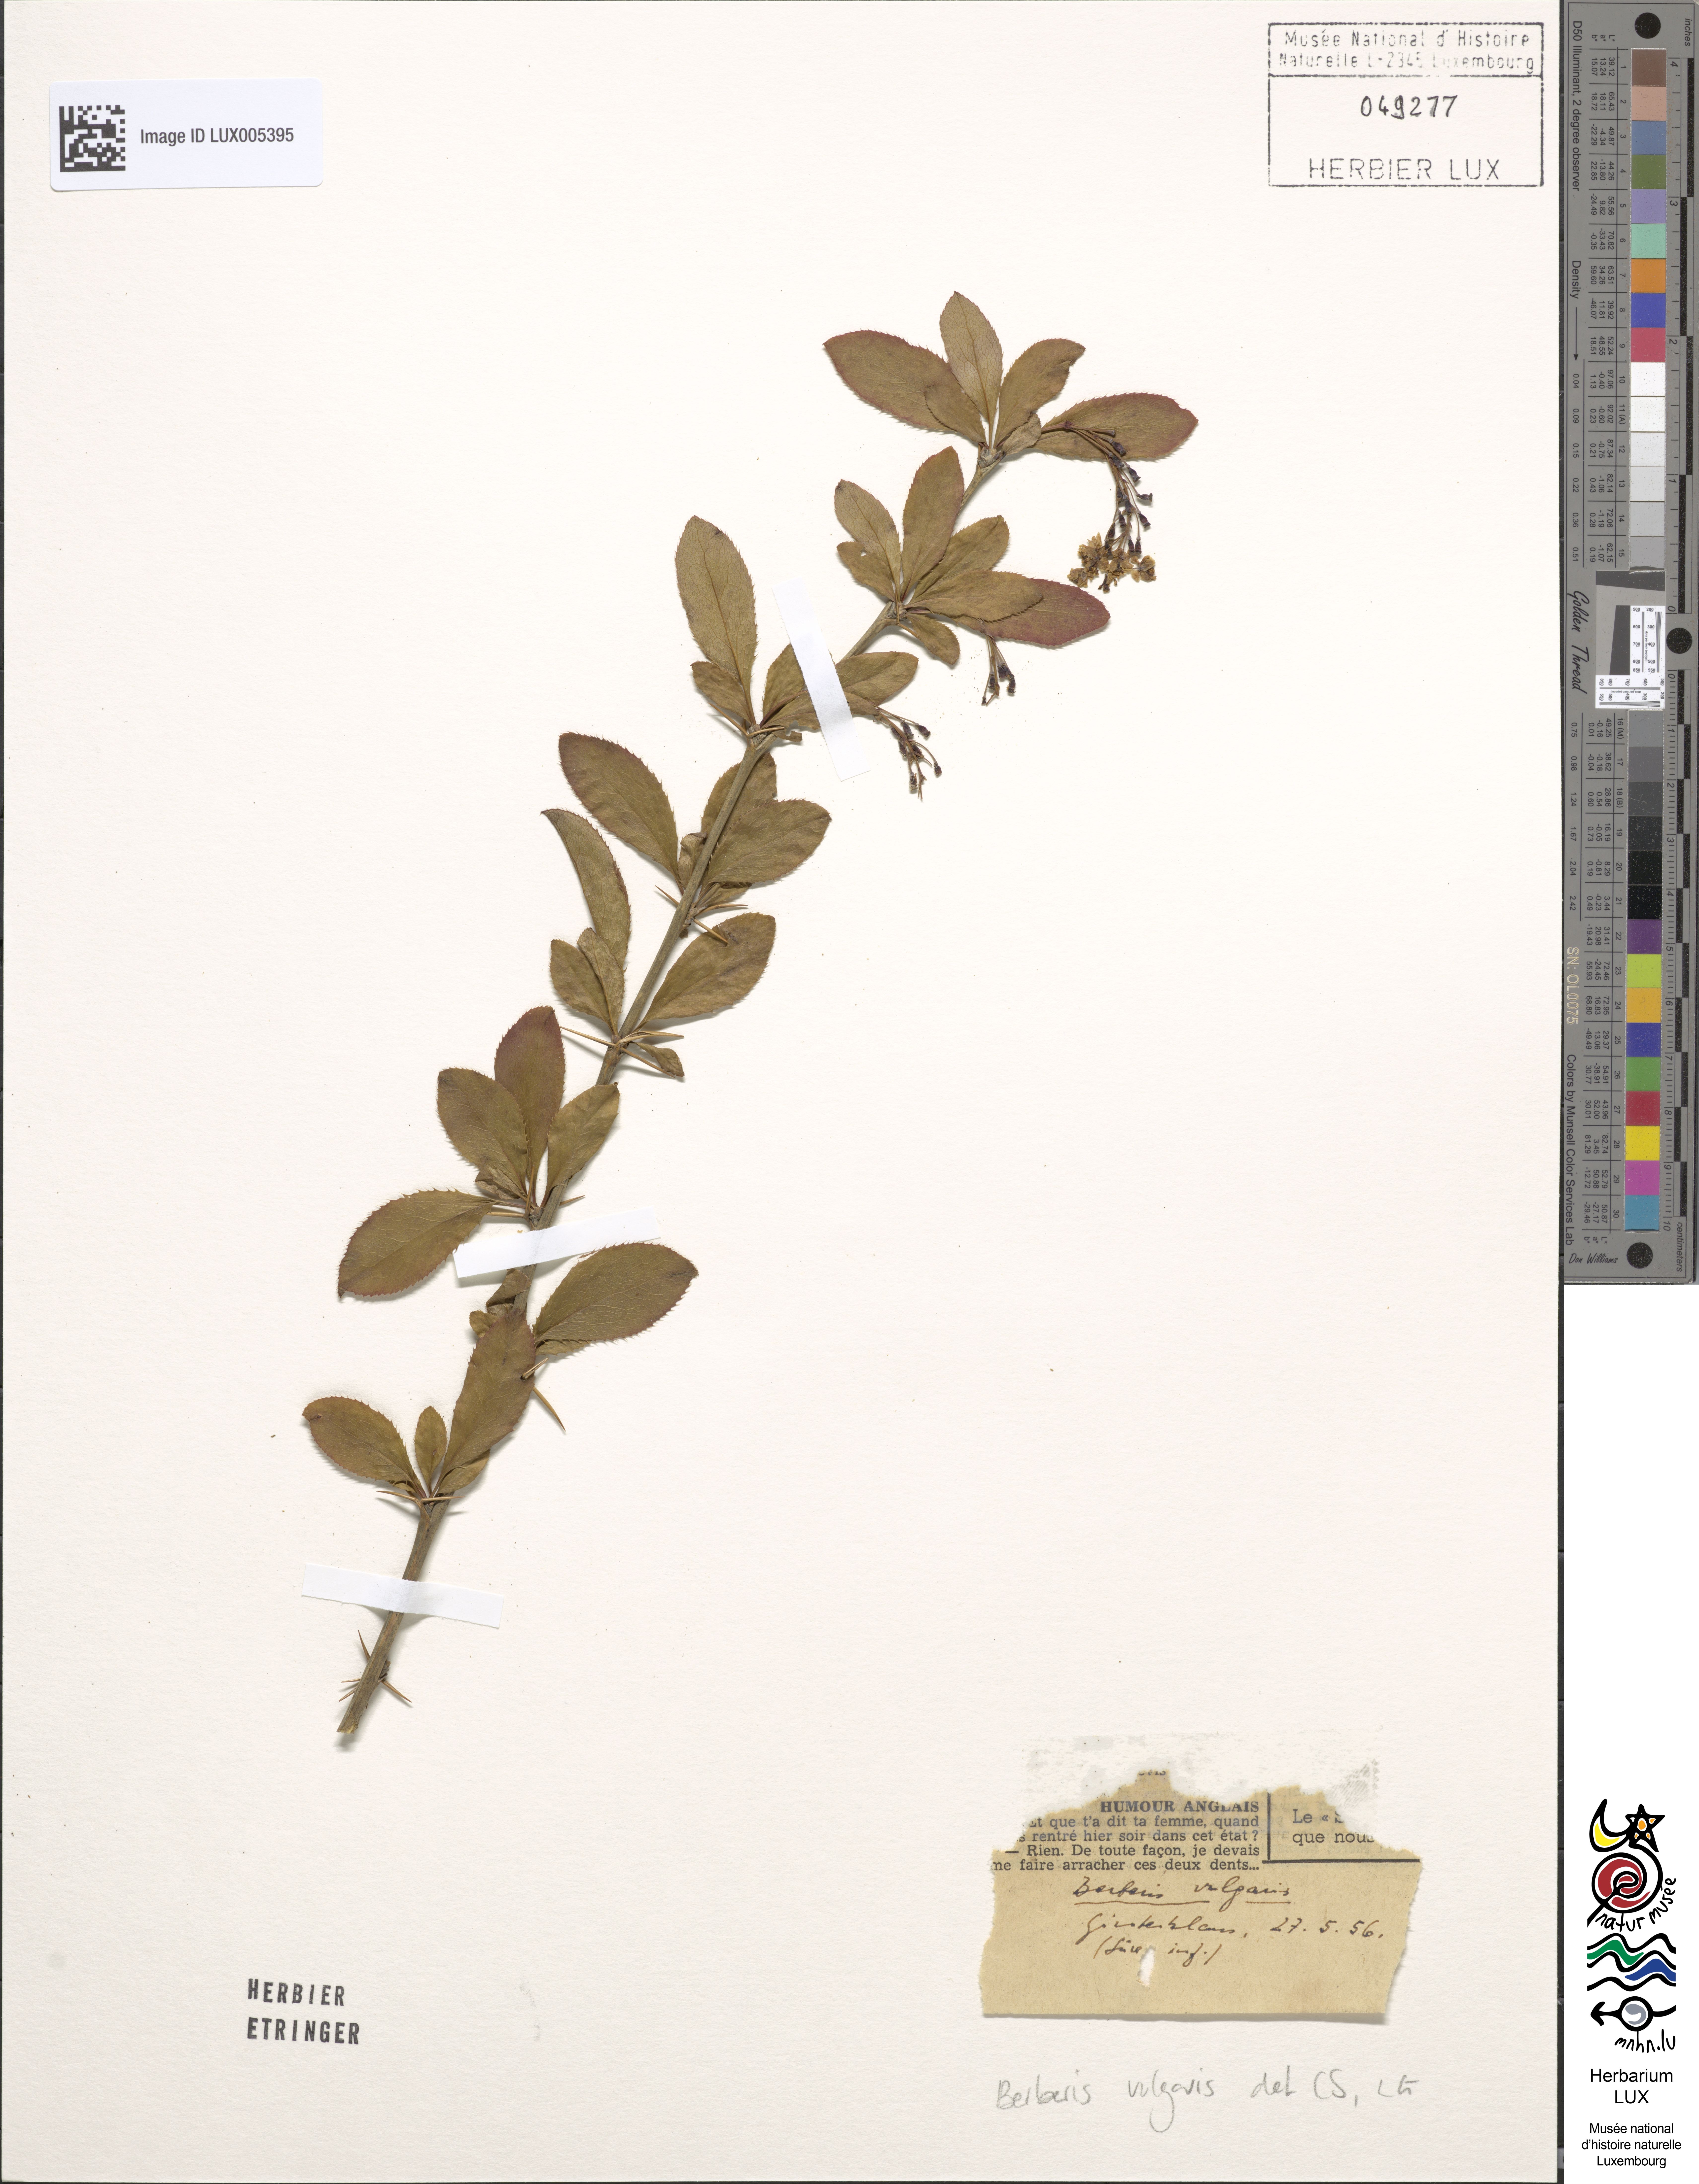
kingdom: Plantae
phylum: Tracheophyta
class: Magnoliopsida
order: Ranunculales
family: Berberidaceae
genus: Berberis
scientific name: Berberis vulgaris
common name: Barberry
